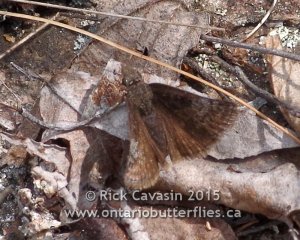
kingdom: Animalia
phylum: Arthropoda
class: Insecta
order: Lepidoptera
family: Hesperiidae
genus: Erynnis
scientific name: Erynnis icelus
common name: Dreamy Duskywing
